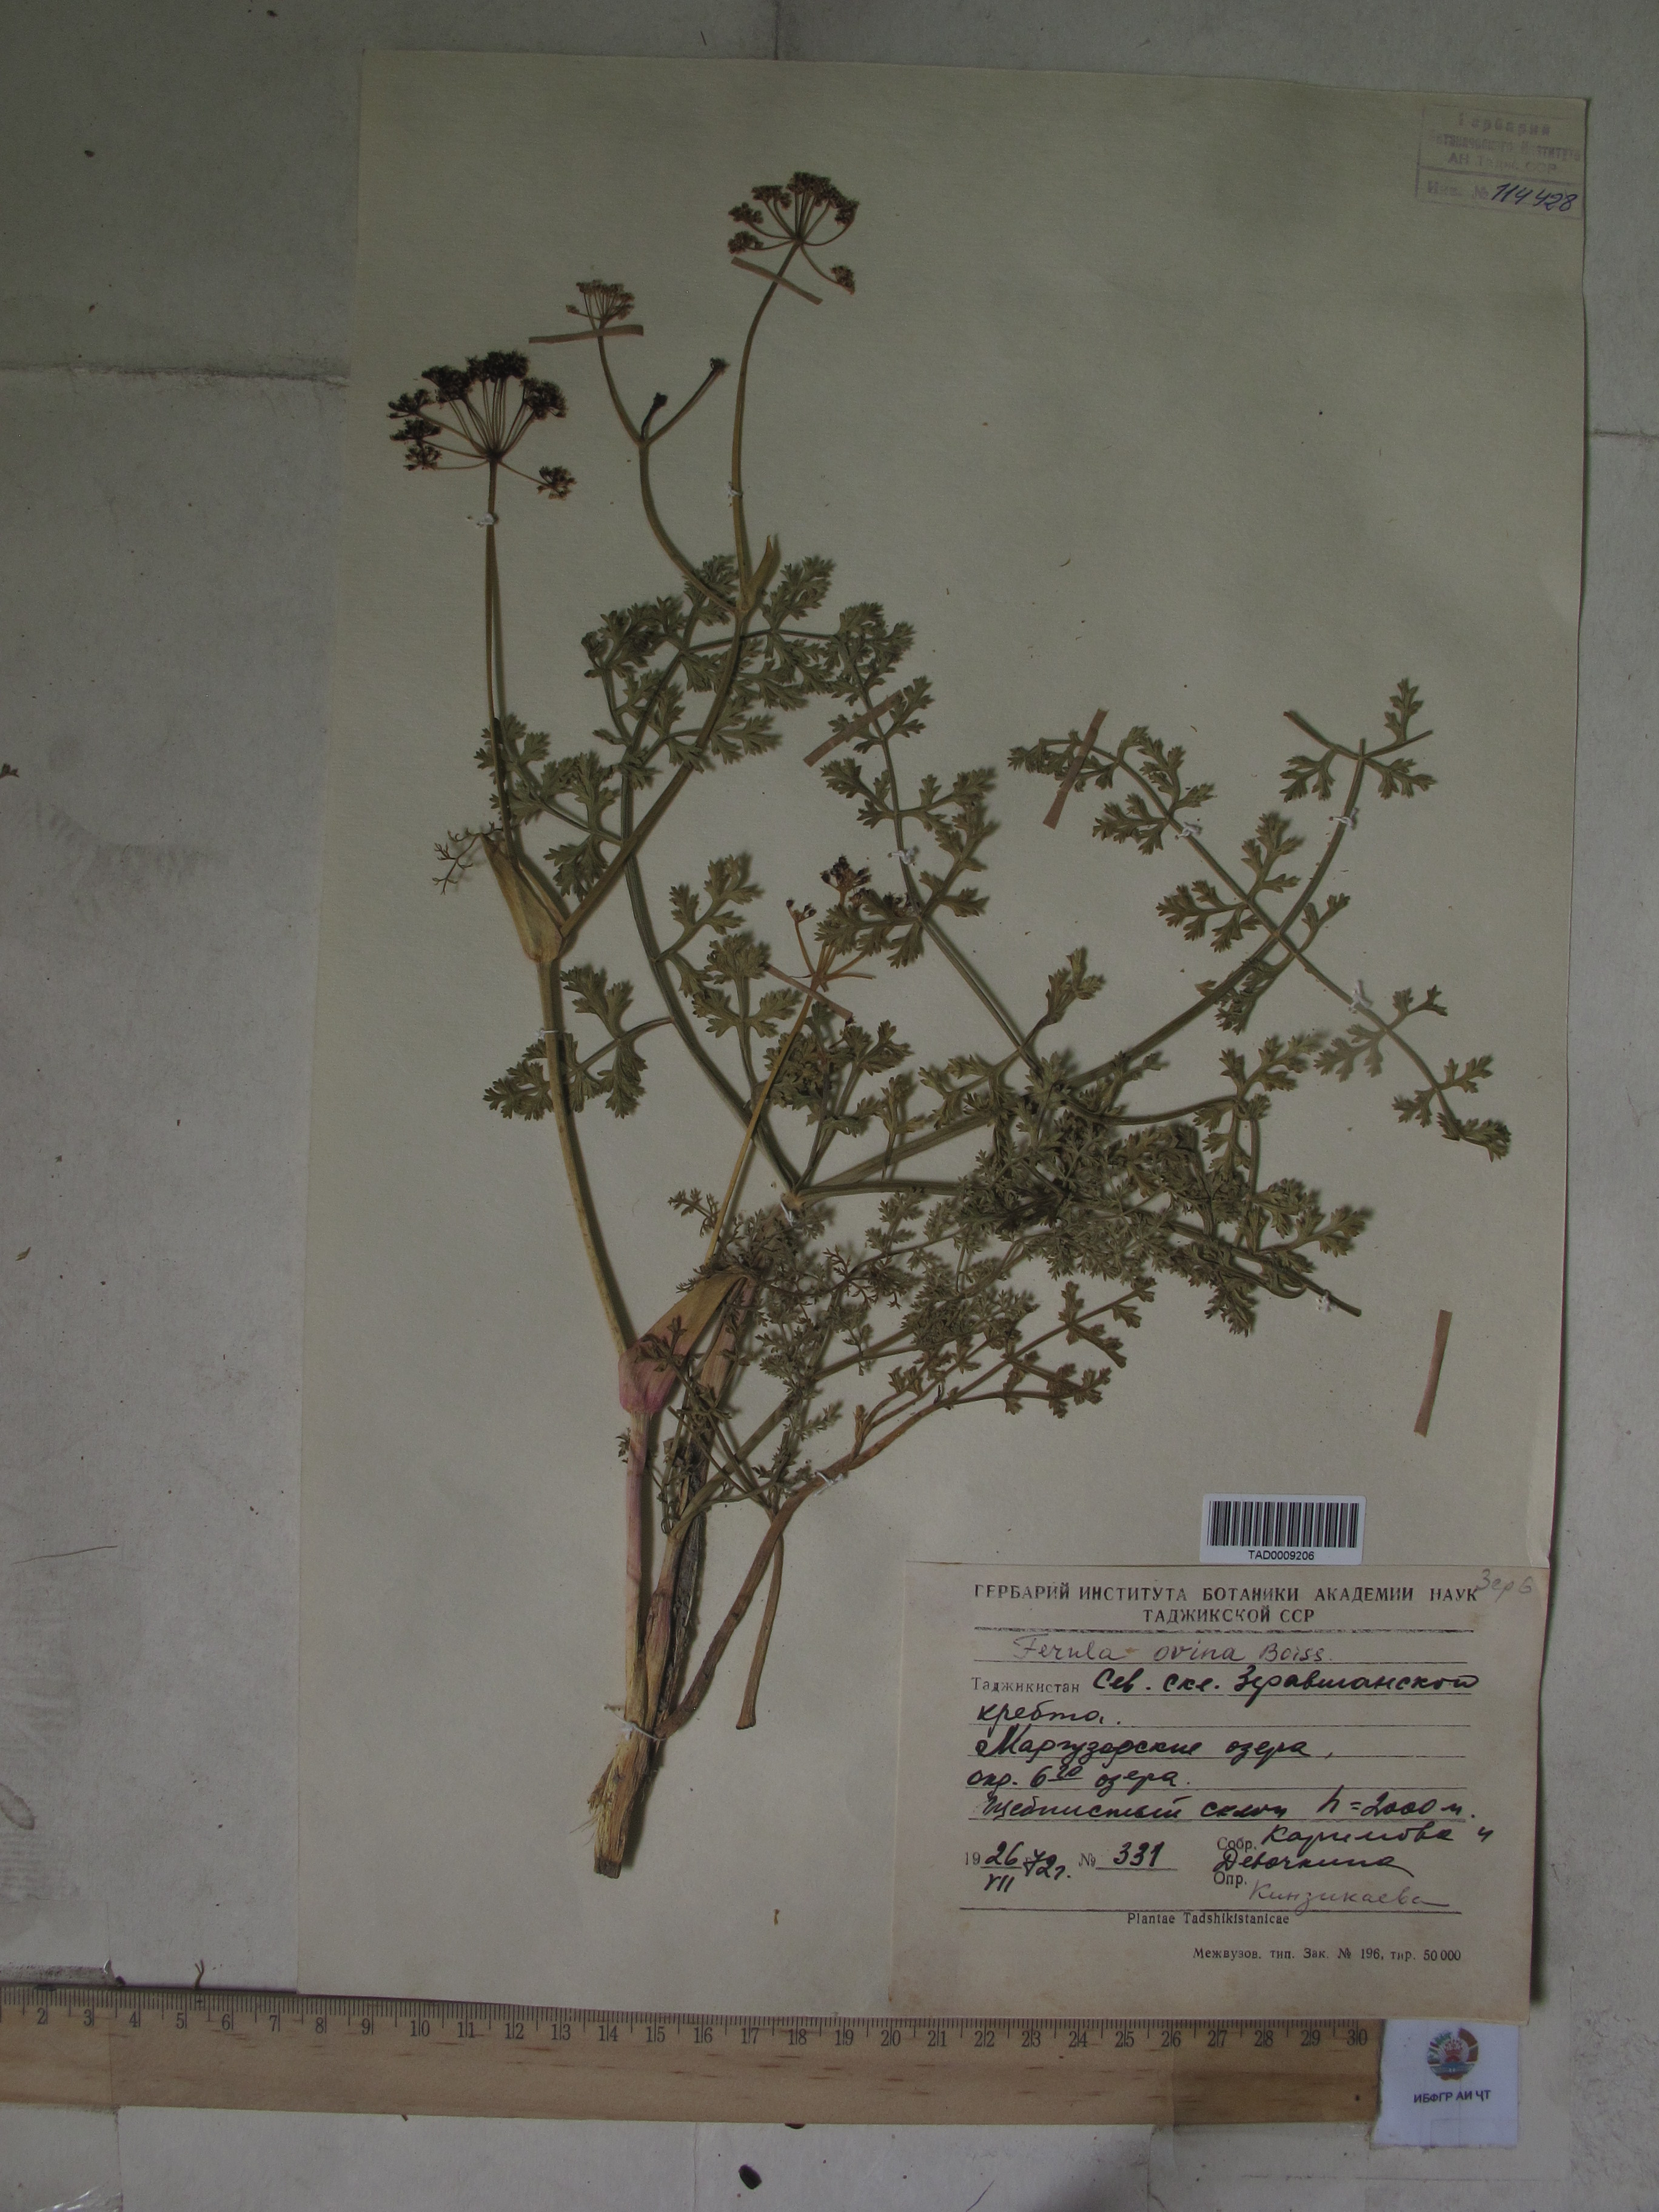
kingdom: Plantae
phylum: Tracheophyta
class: Magnoliopsida
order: Apiales
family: Apiaceae
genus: Ferula
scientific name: Ferula ovina
